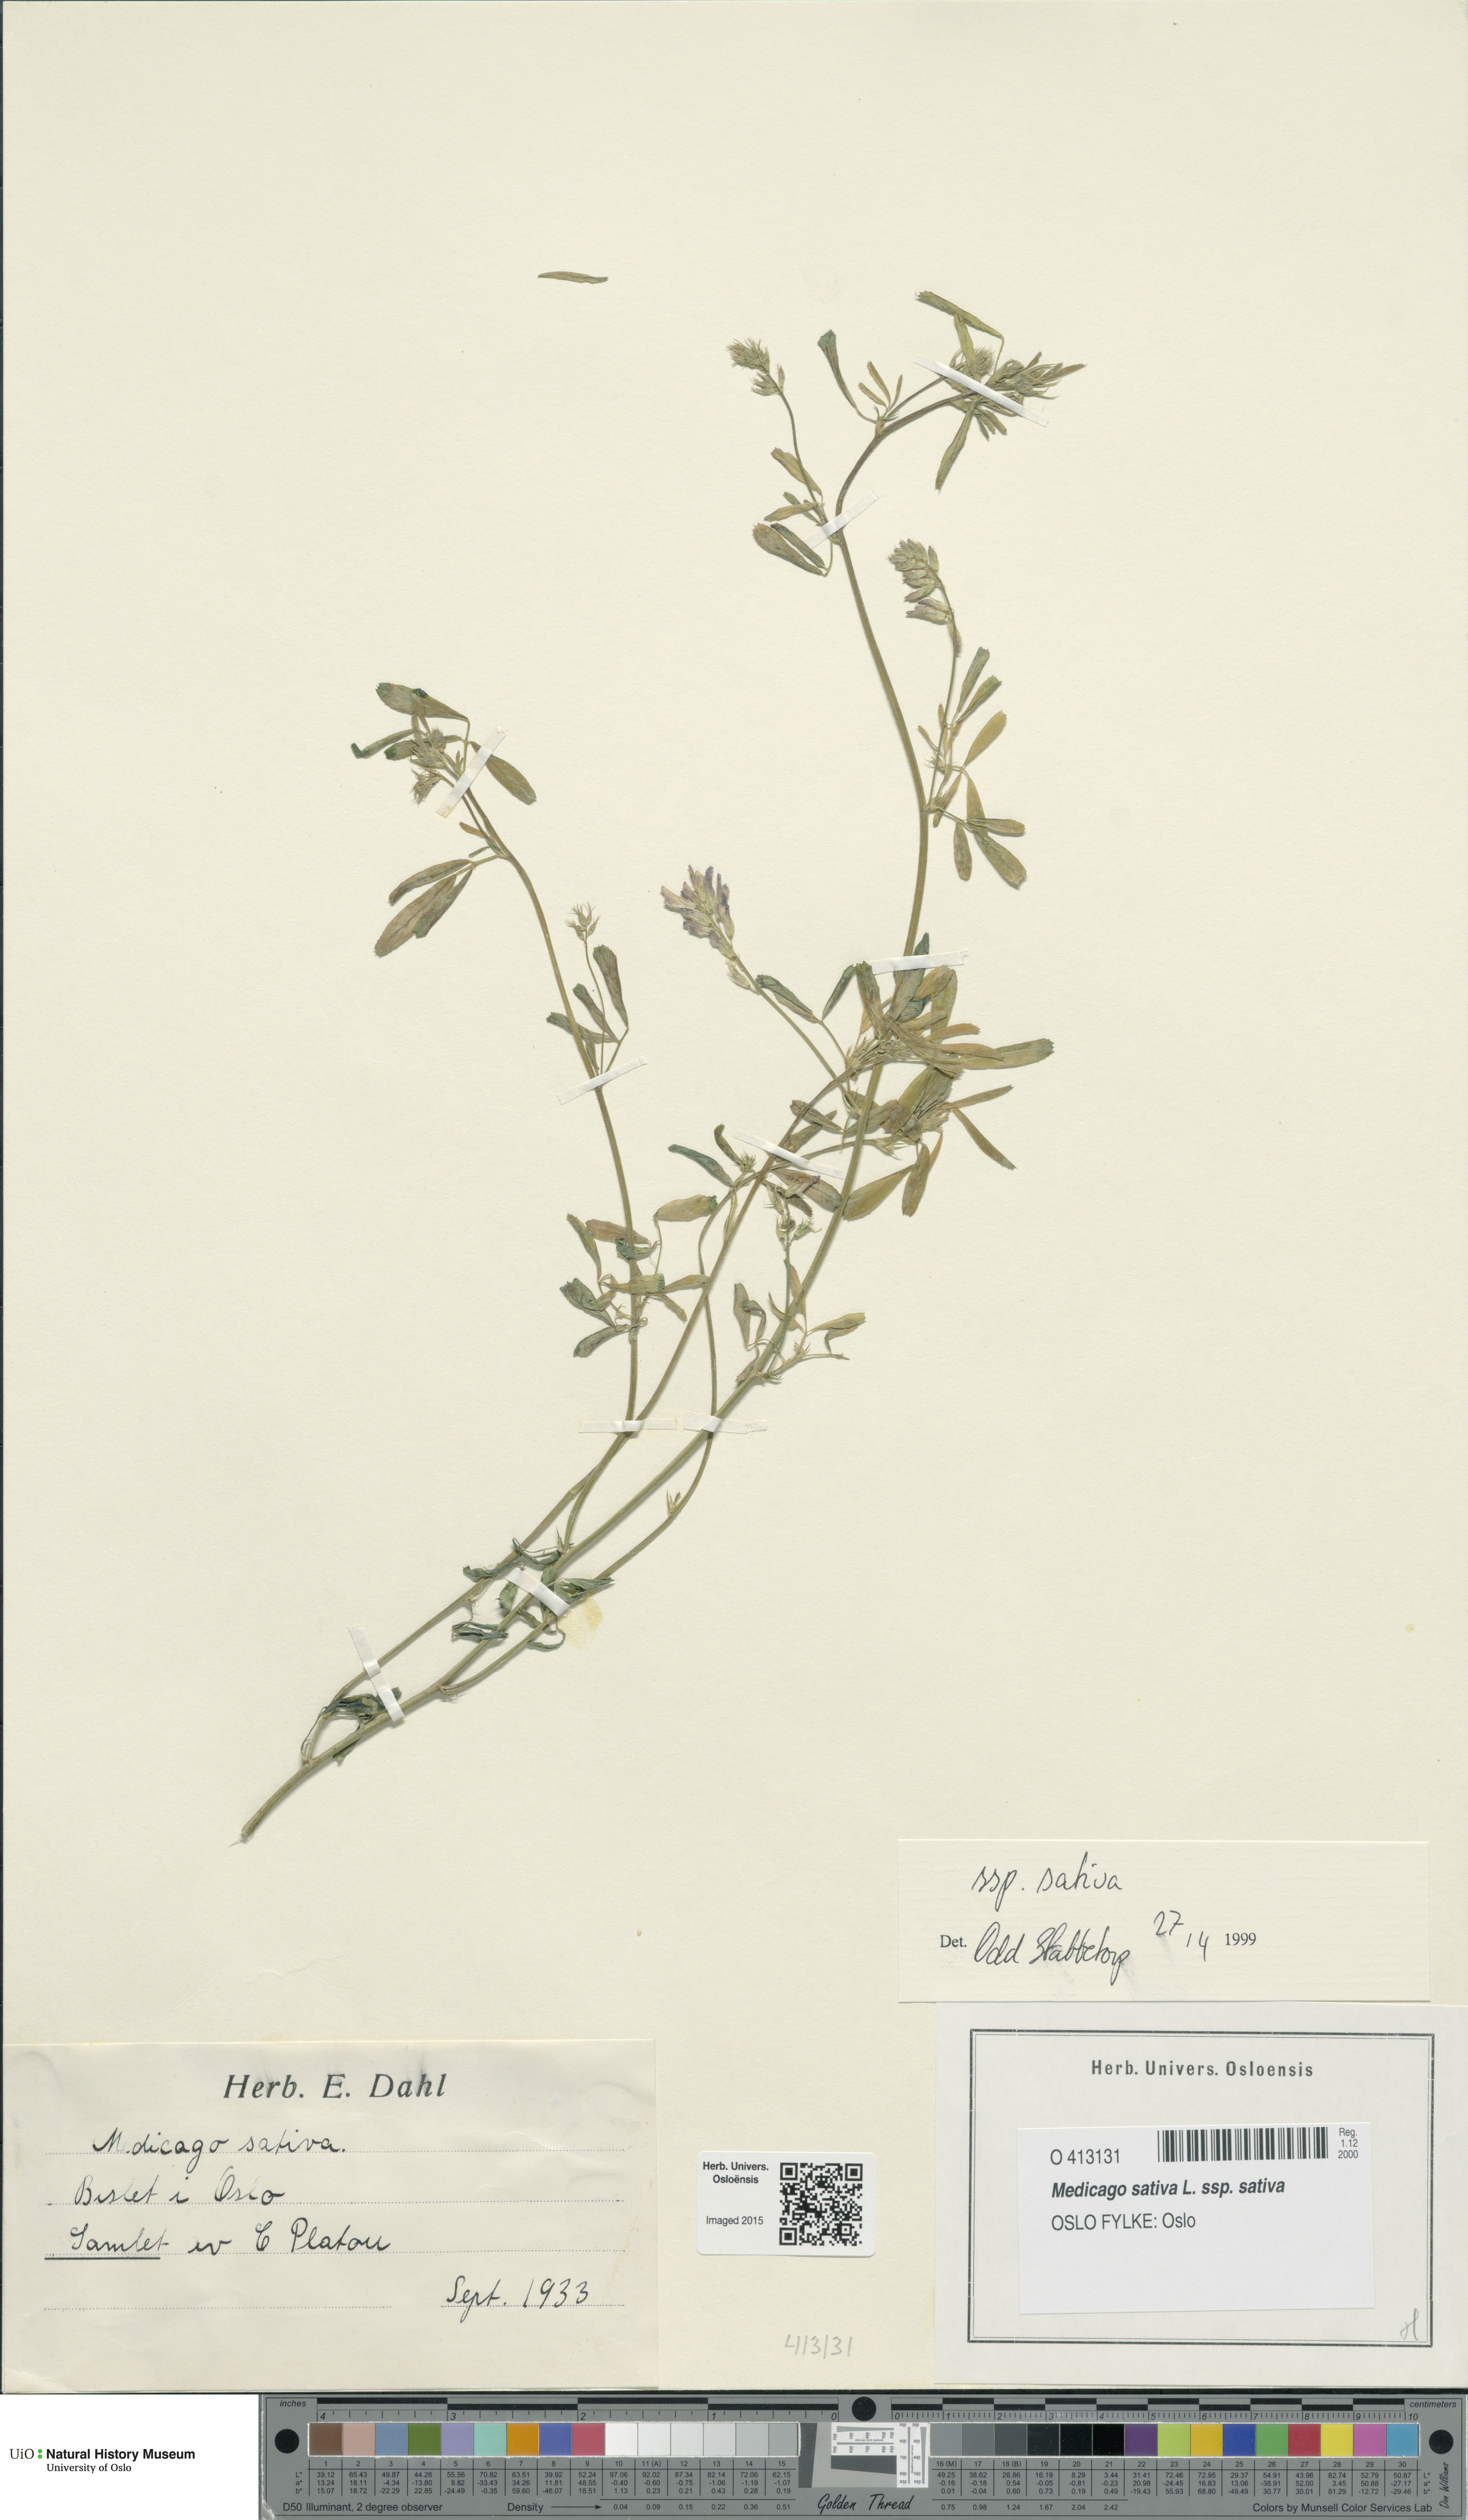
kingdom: Plantae
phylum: Tracheophyta
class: Magnoliopsida
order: Fabales
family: Fabaceae
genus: Medicago
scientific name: Medicago sativa
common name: Alfalfa
